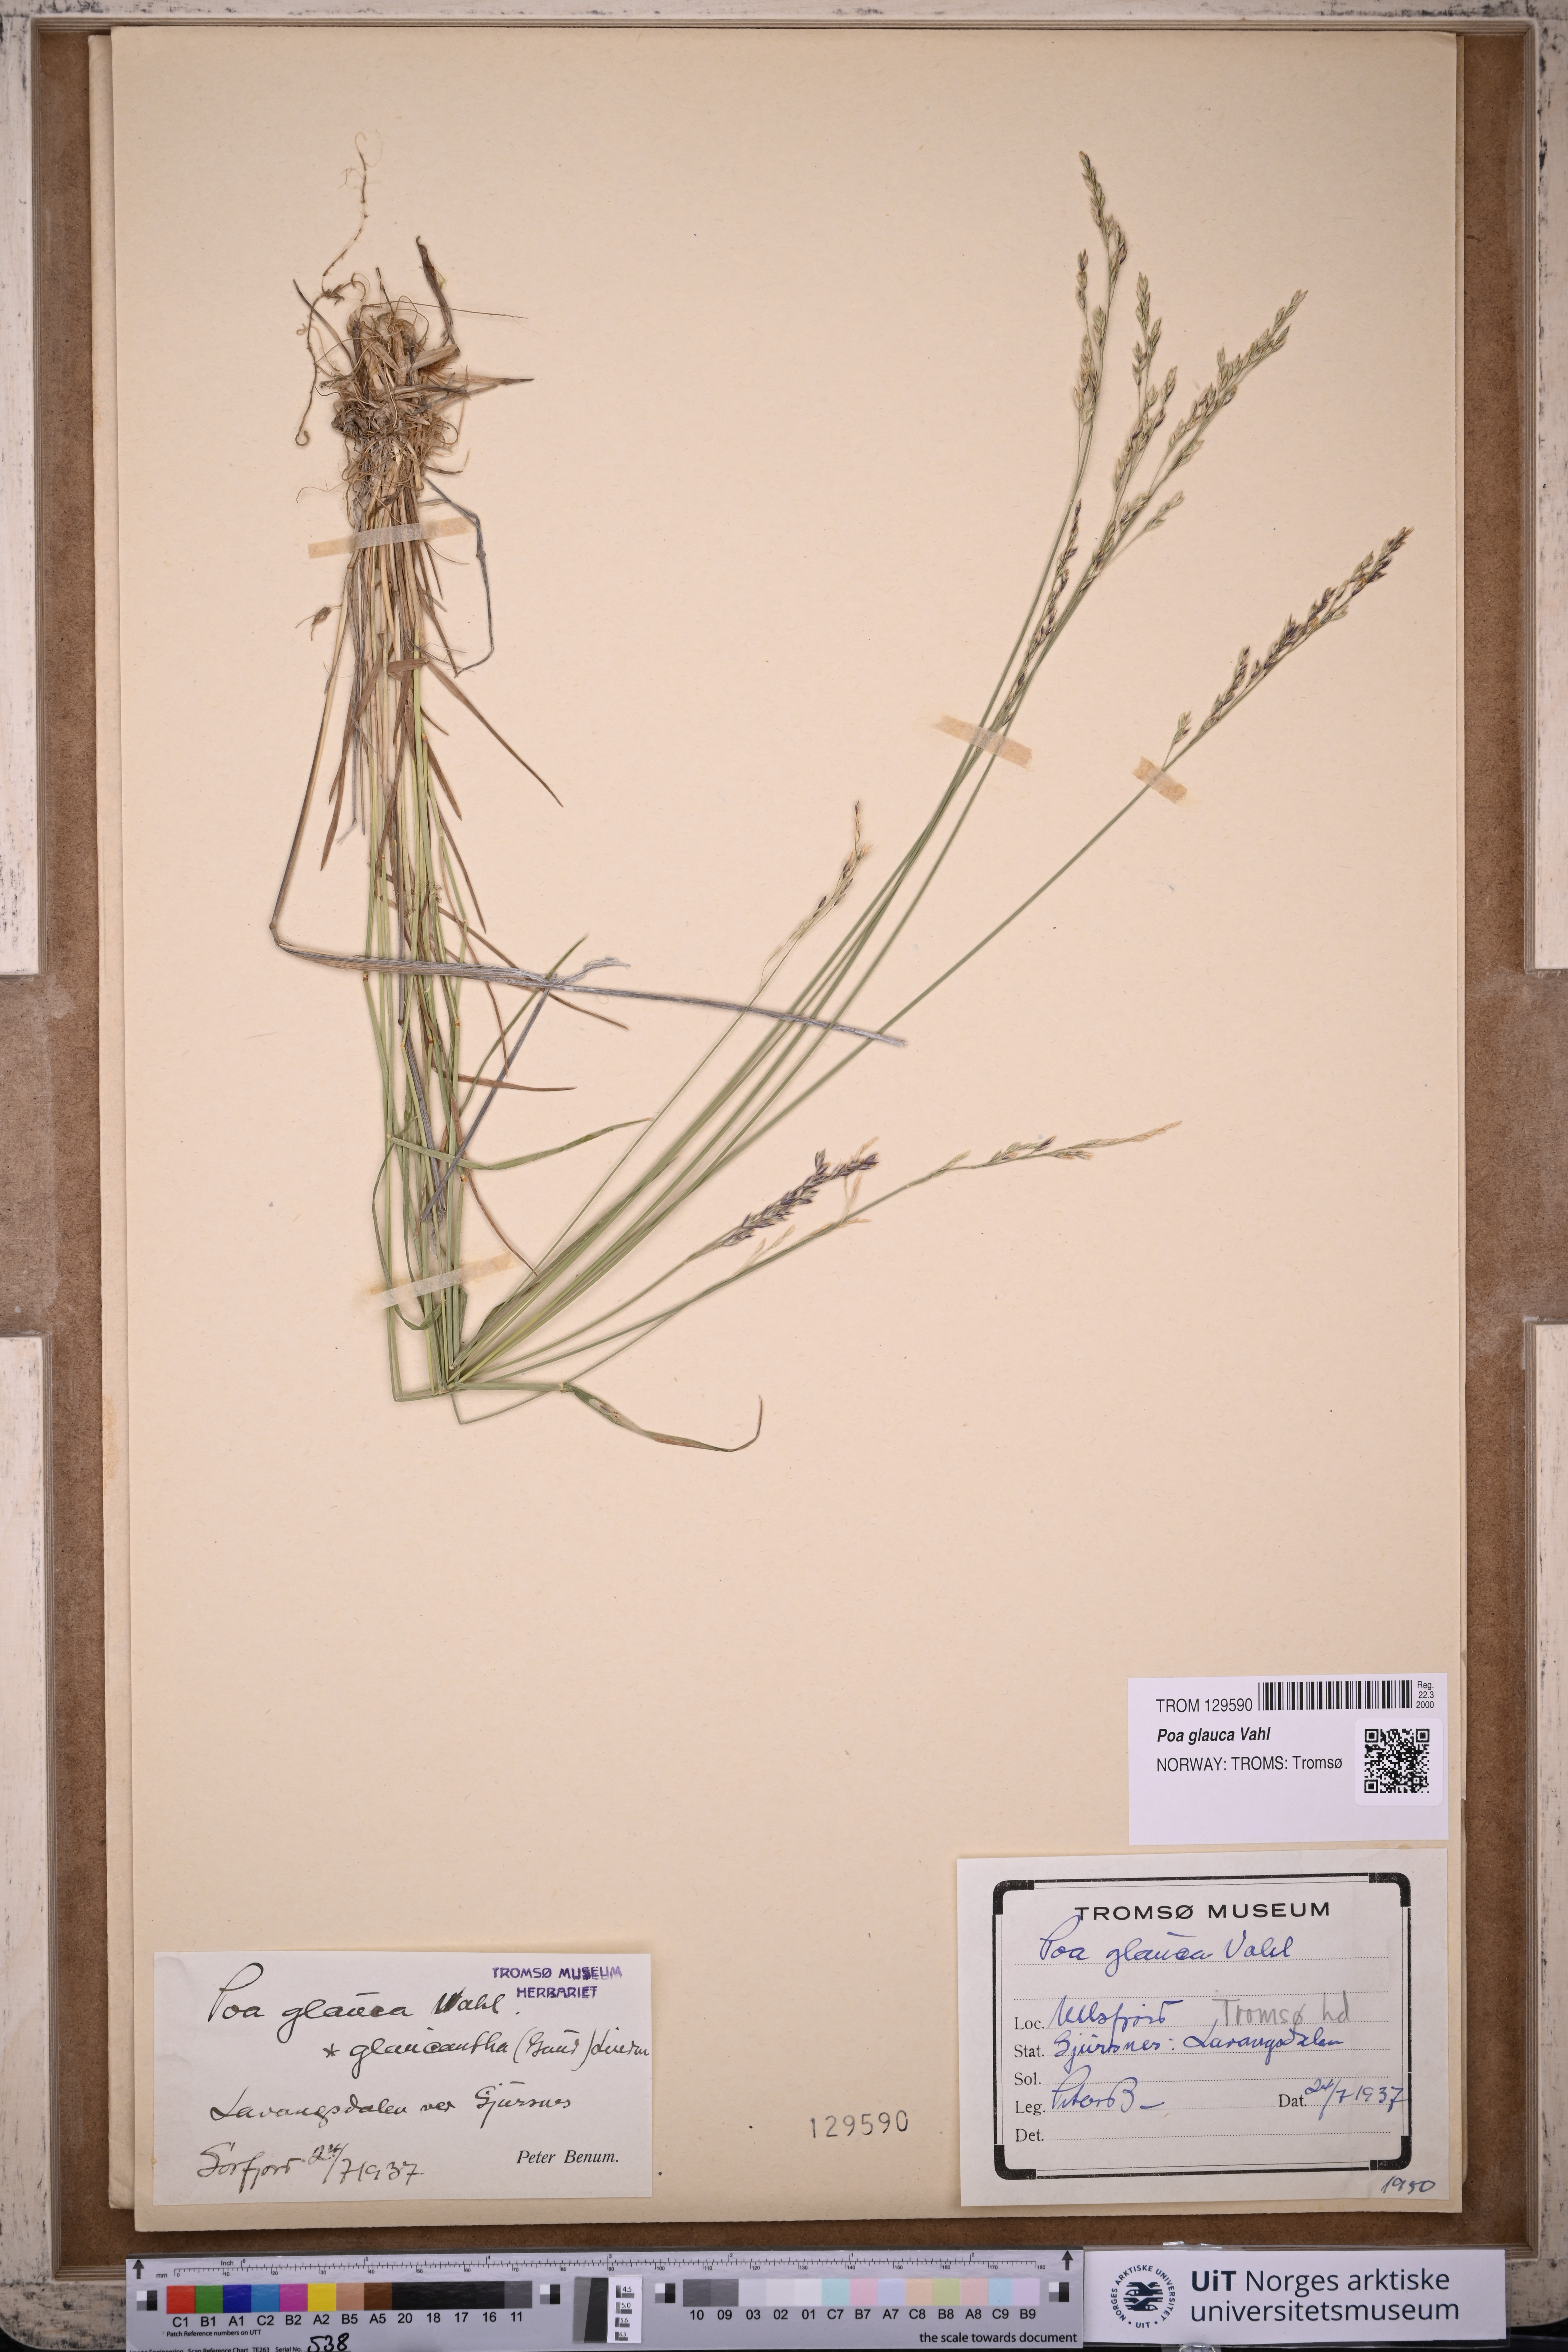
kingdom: Plantae
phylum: Tracheophyta
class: Liliopsida
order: Poales
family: Poaceae
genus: Poa
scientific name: Poa glauca
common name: Glaucous bluegrass
